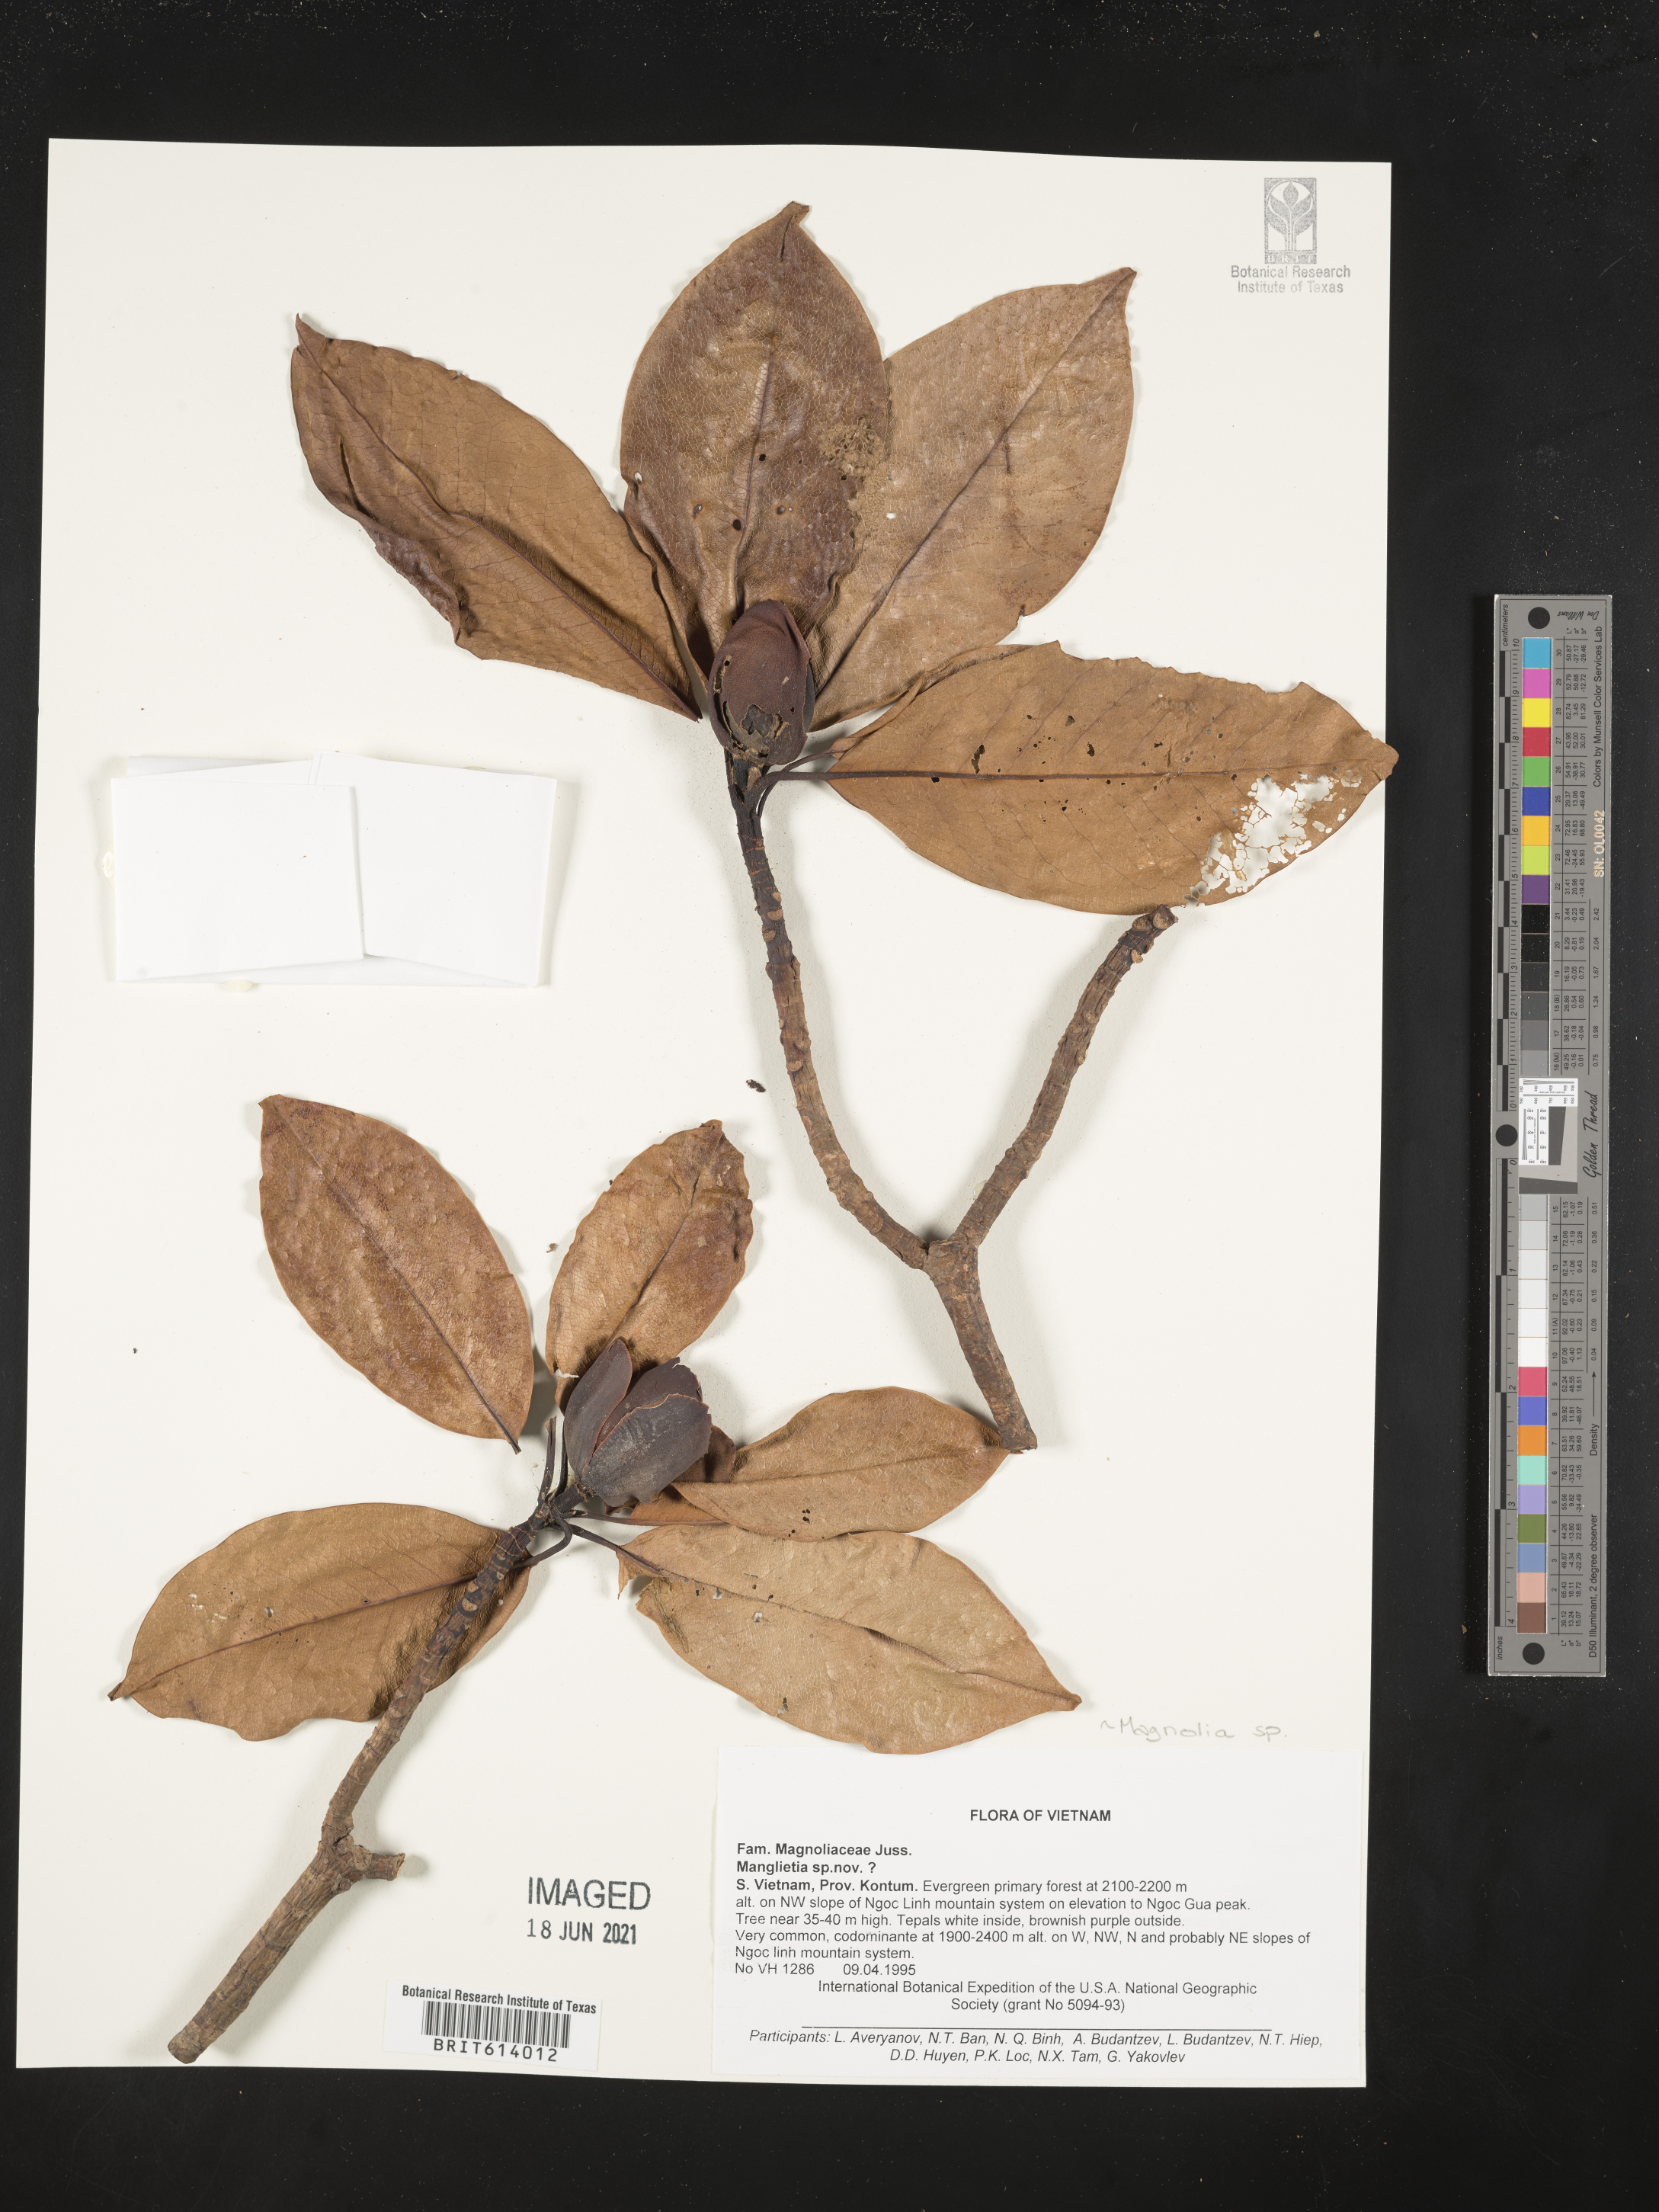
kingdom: Plantae
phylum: Tracheophyta
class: Magnoliopsida
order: Magnoliales
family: Magnoliaceae
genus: Magnolia
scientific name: Magnolia
